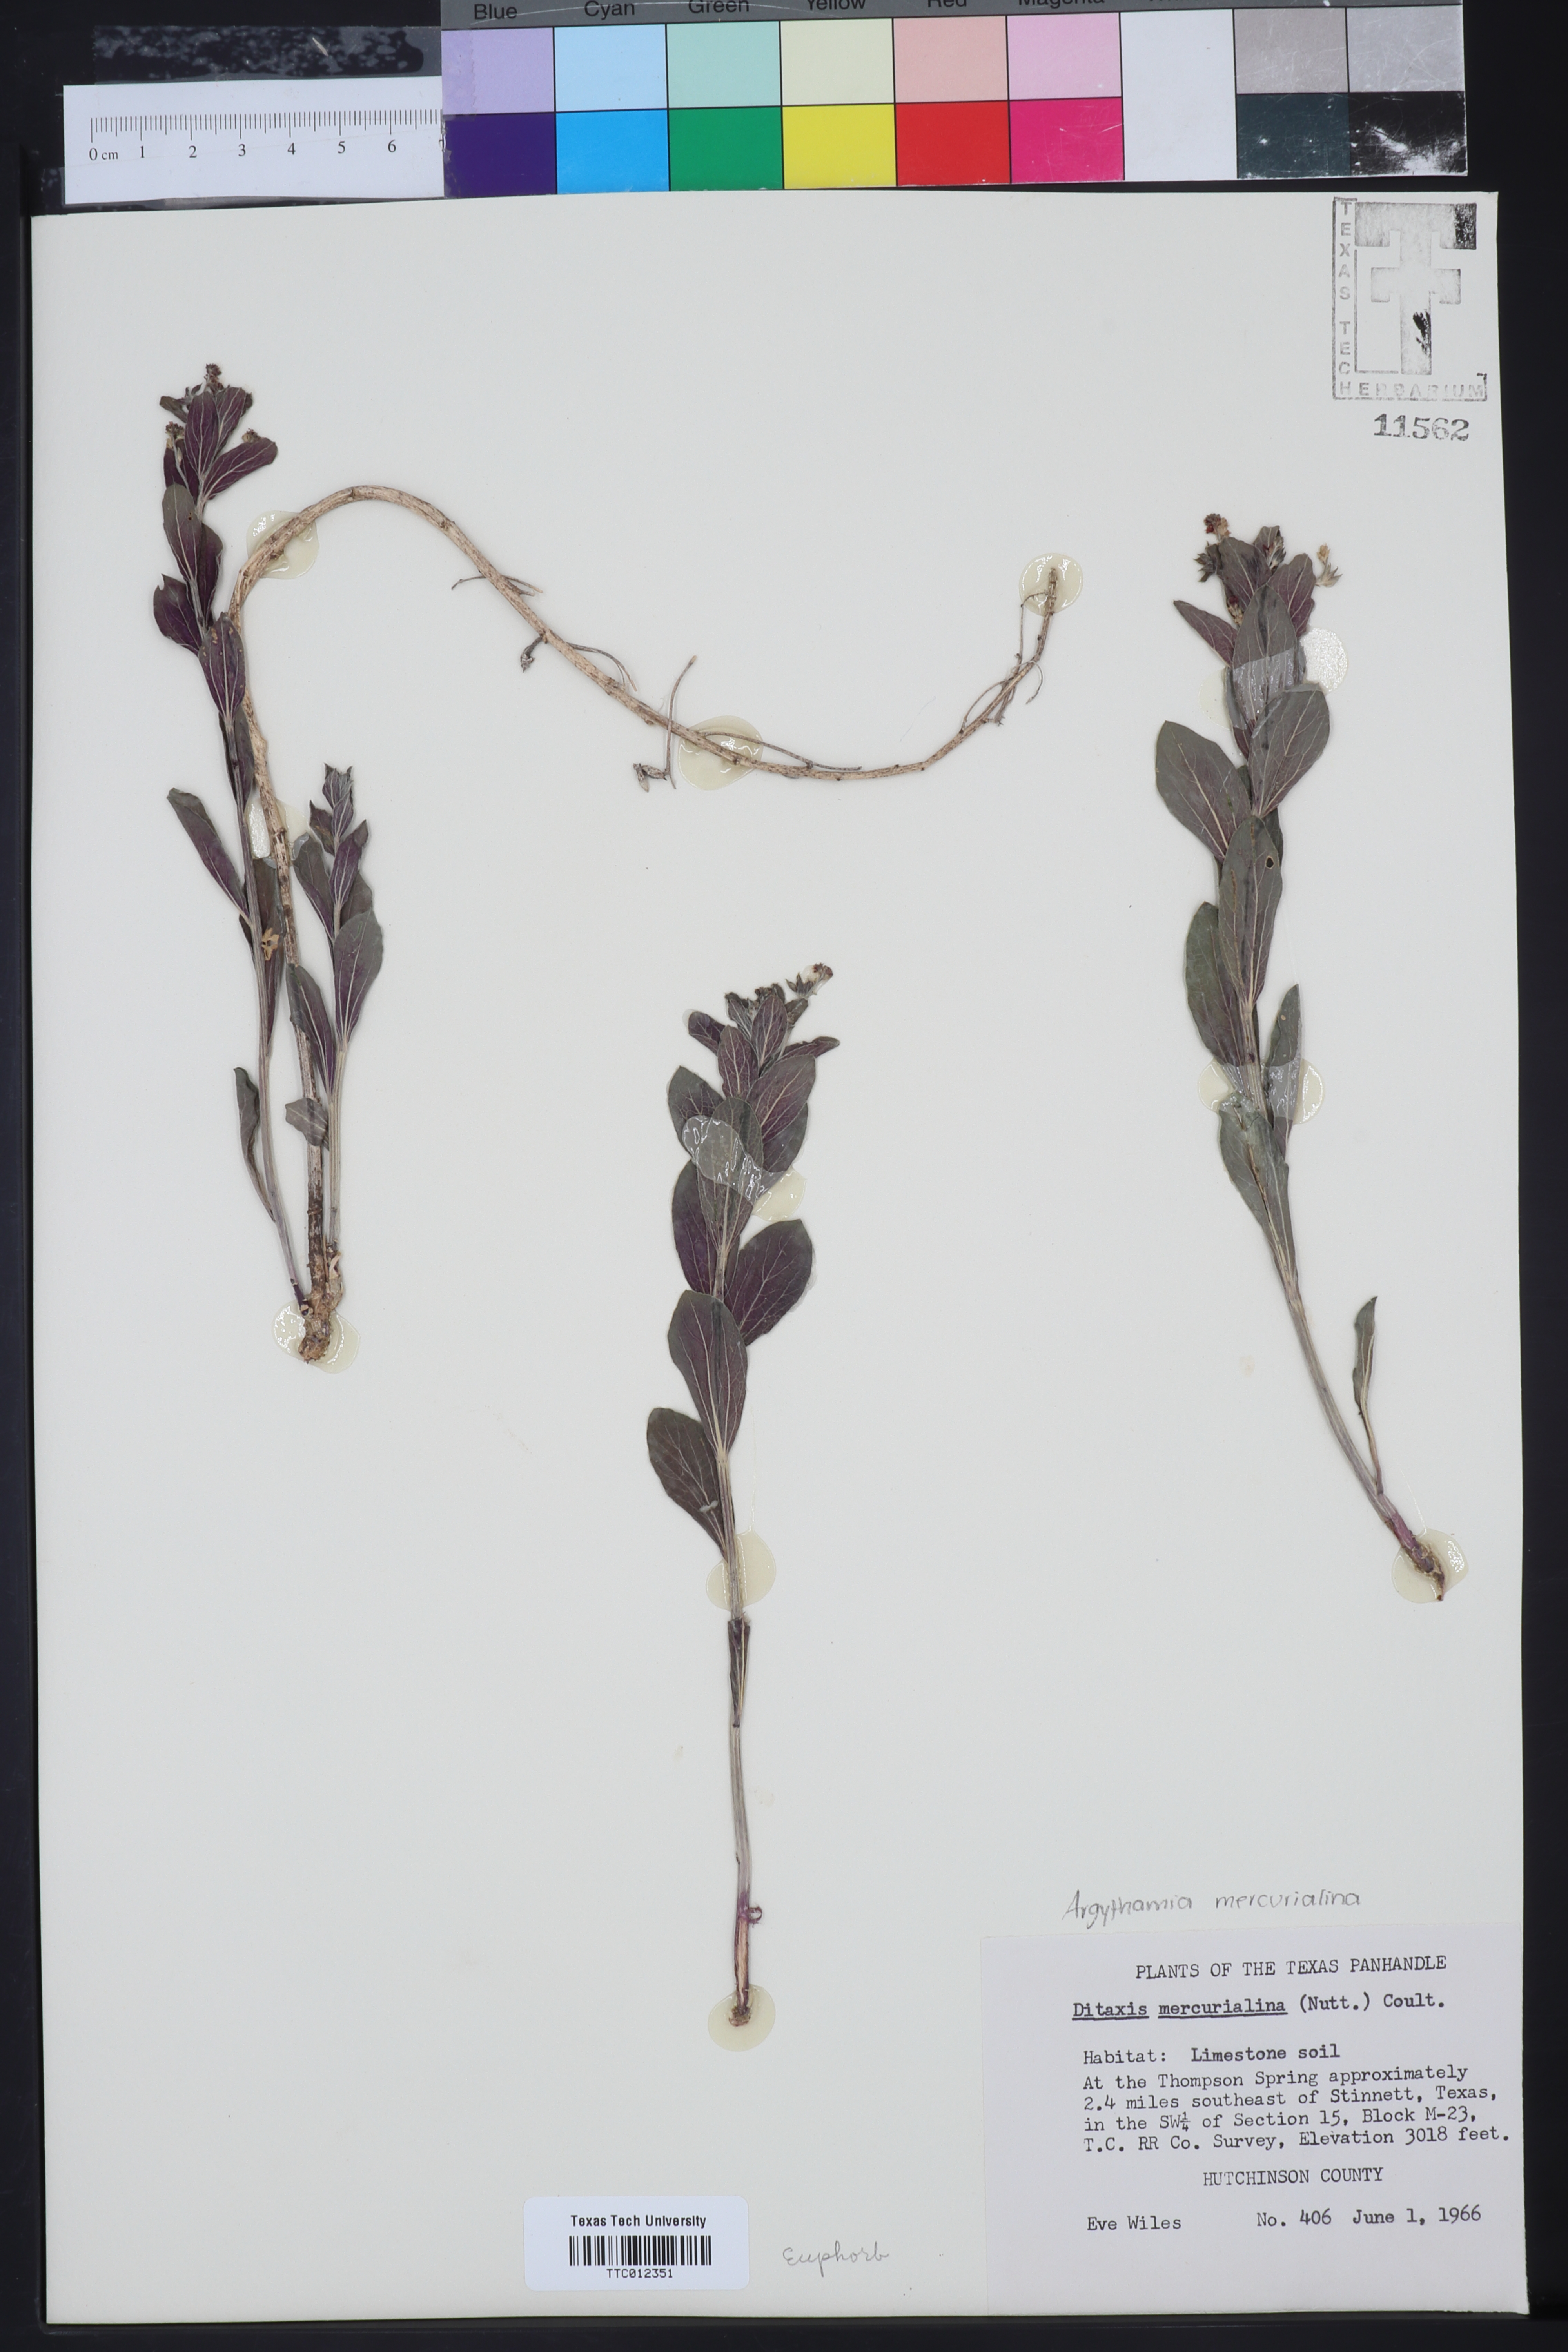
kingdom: Plantae
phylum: Tracheophyta
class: Magnoliopsida
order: Malpighiales
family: Euphorbiaceae
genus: Ditaxis
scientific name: Ditaxis mercurialina
